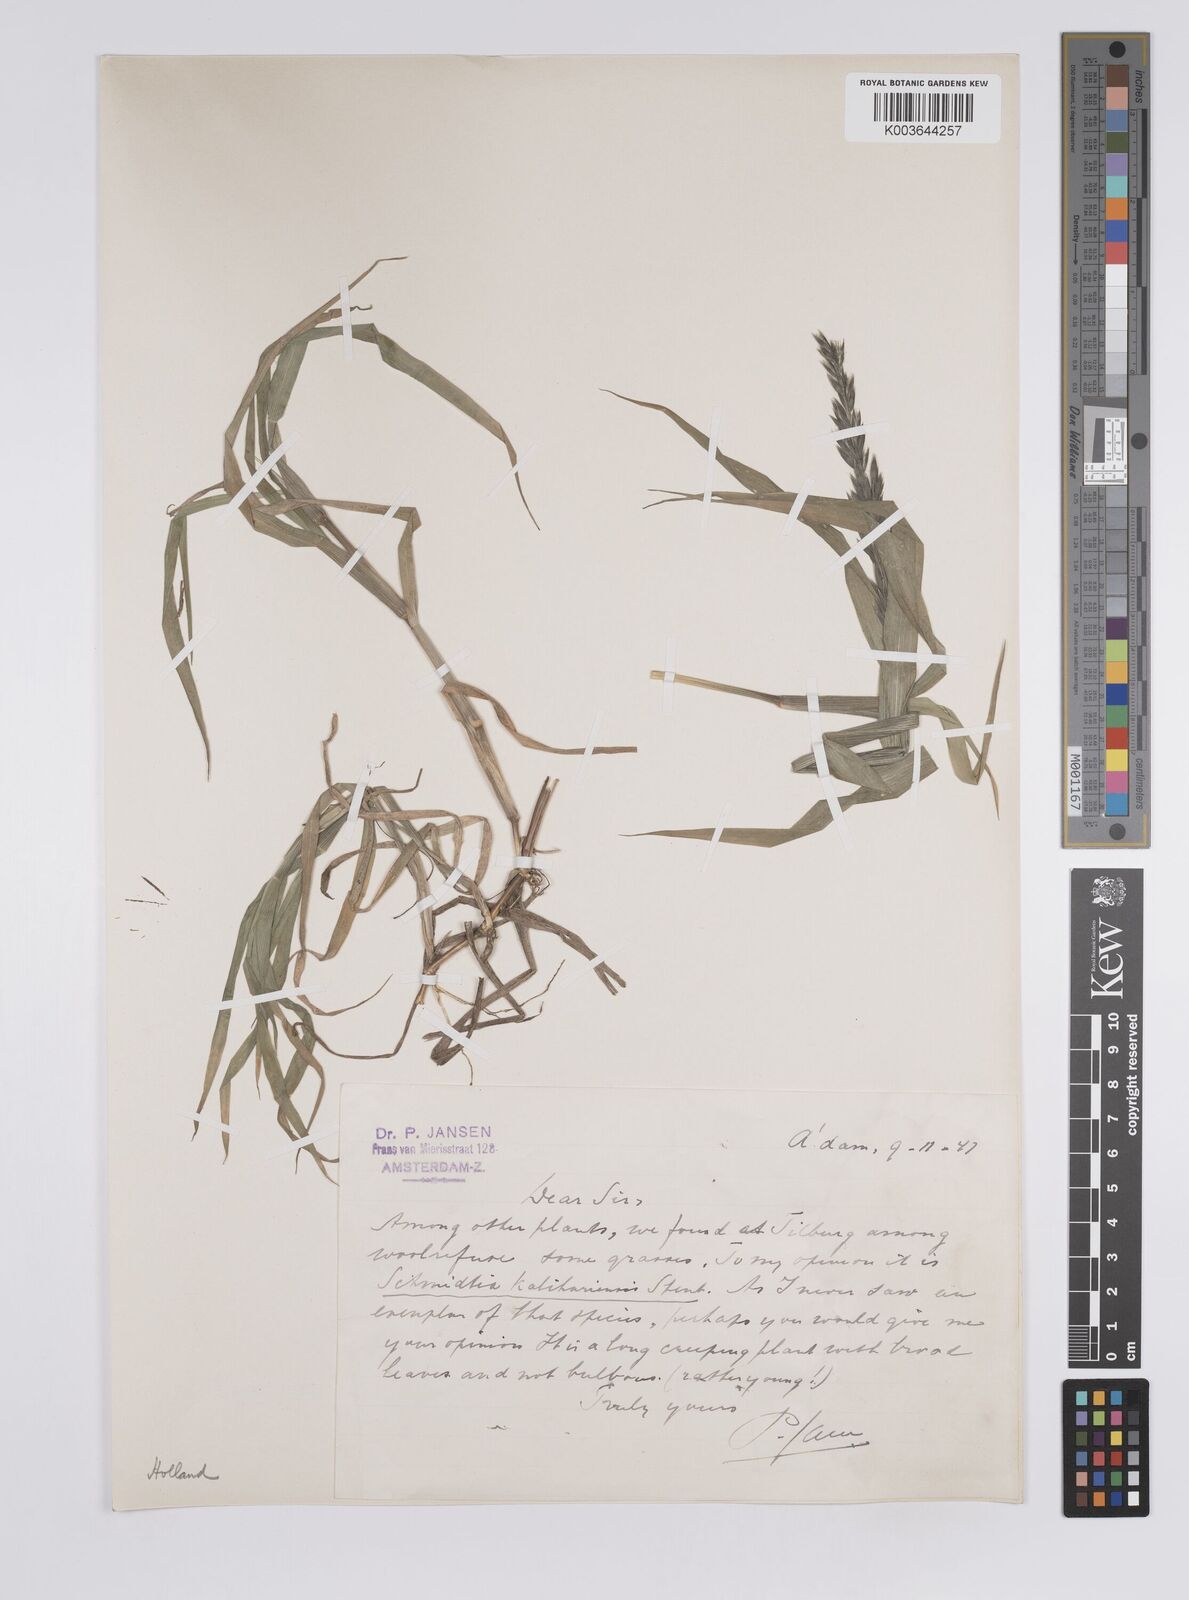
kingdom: Plantae
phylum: Tracheophyta
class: Liliopsida
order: Poales
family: Poaceae
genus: Schmidtia
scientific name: Schmidtia kalahariensis
